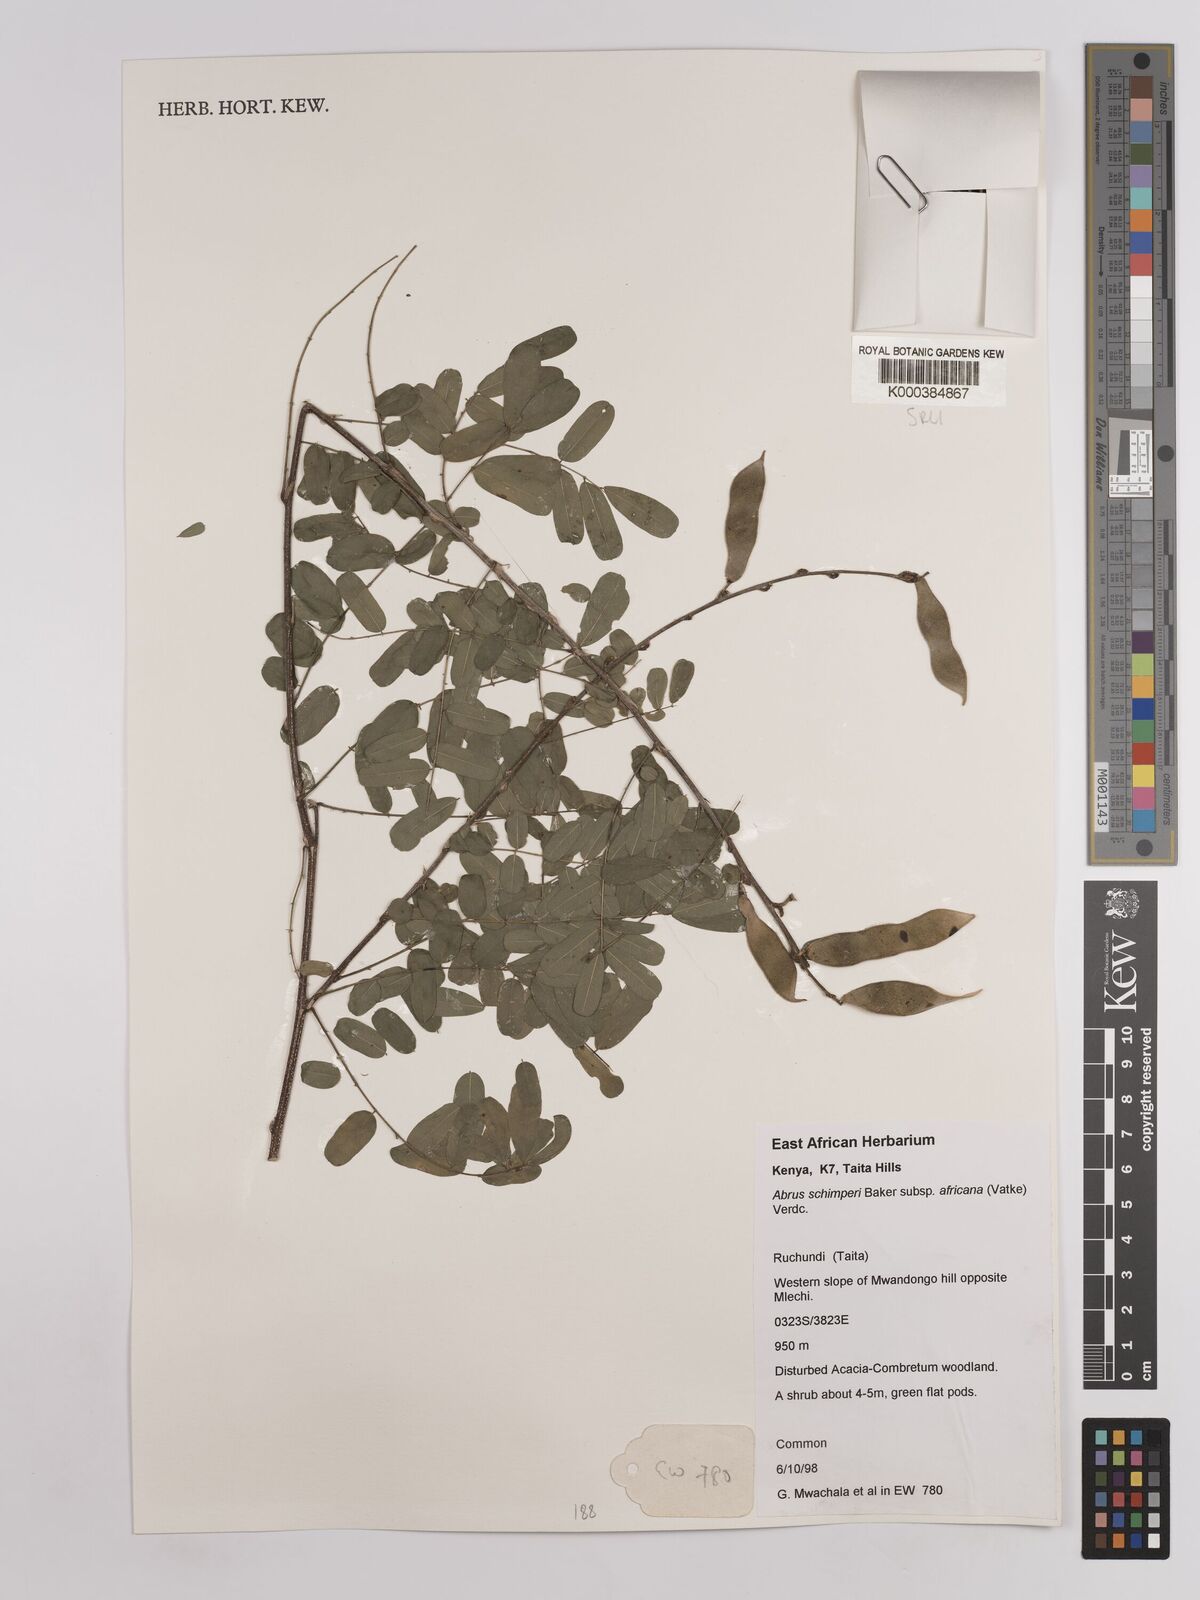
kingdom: Plantae
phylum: Tracheophyta
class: Magnoliopsida
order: Fabales
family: Fabaceae
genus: Abrus
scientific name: Abrus fruticulosus
